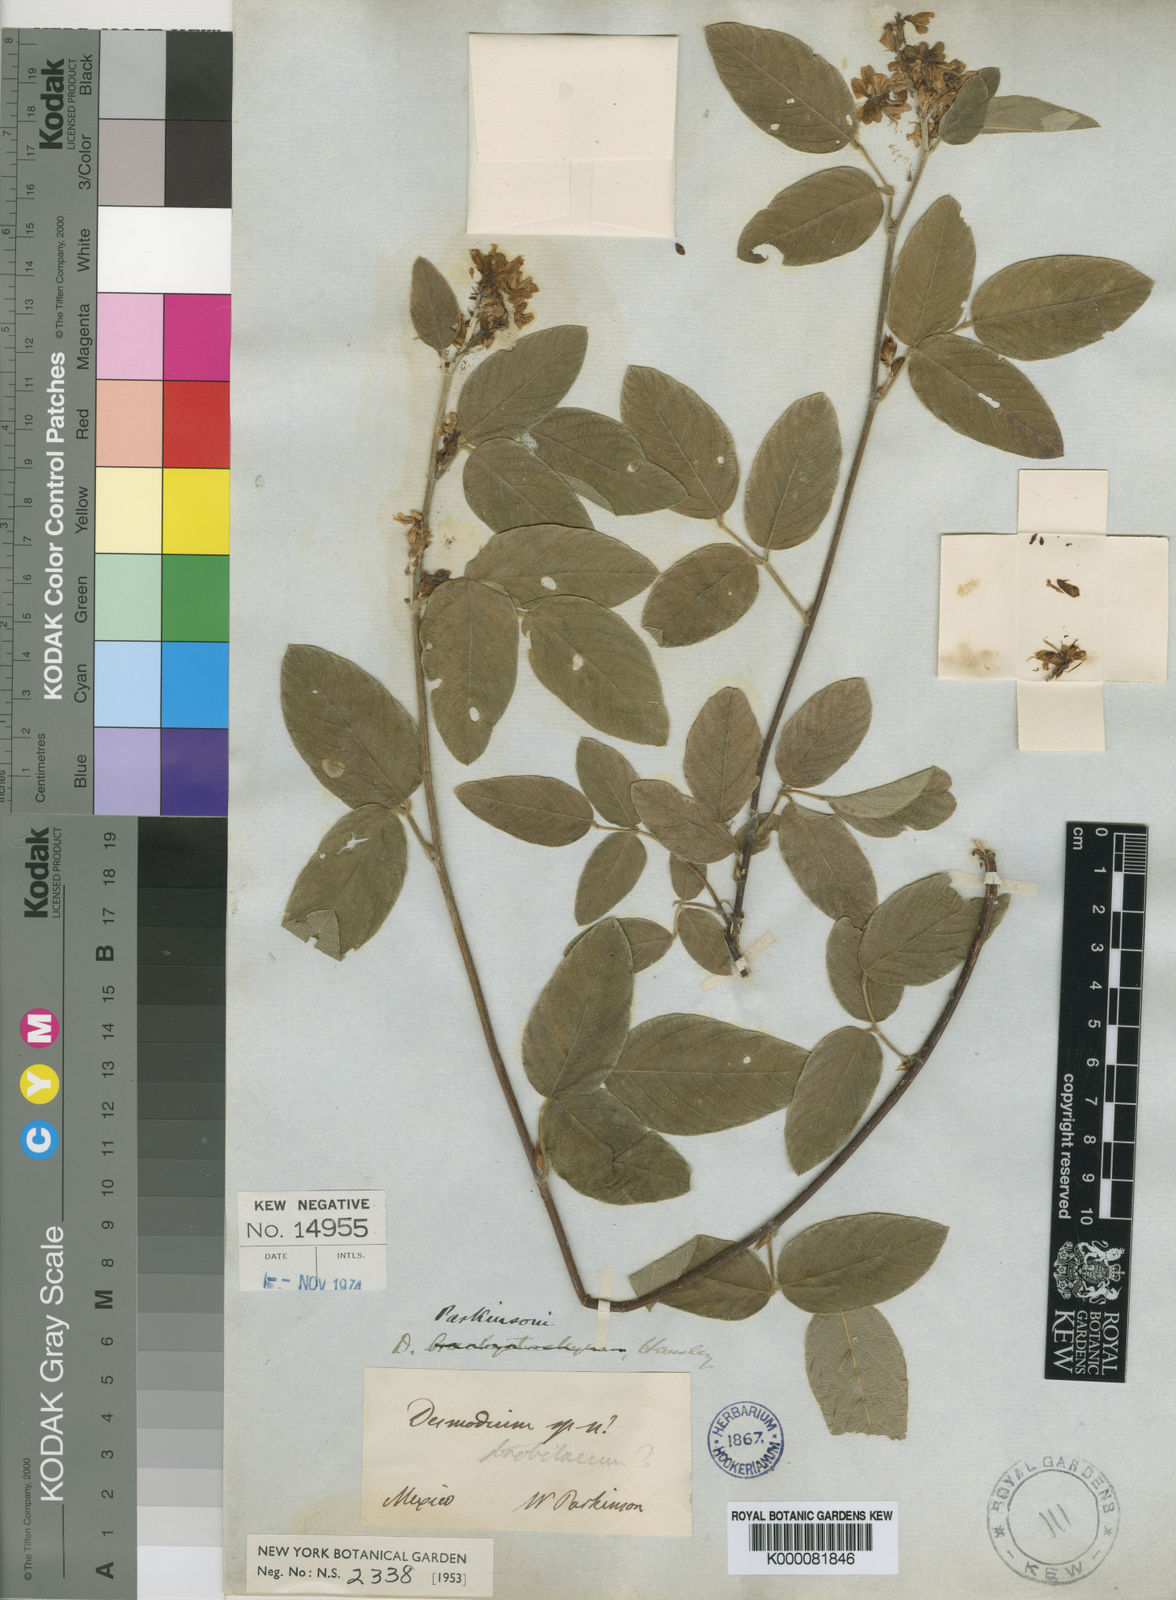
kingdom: Plantae
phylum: Tracheophyta
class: Magnoliopsida
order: Fabales
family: Fabaceae
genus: Desmodium
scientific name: Desmodium parkinsonii
